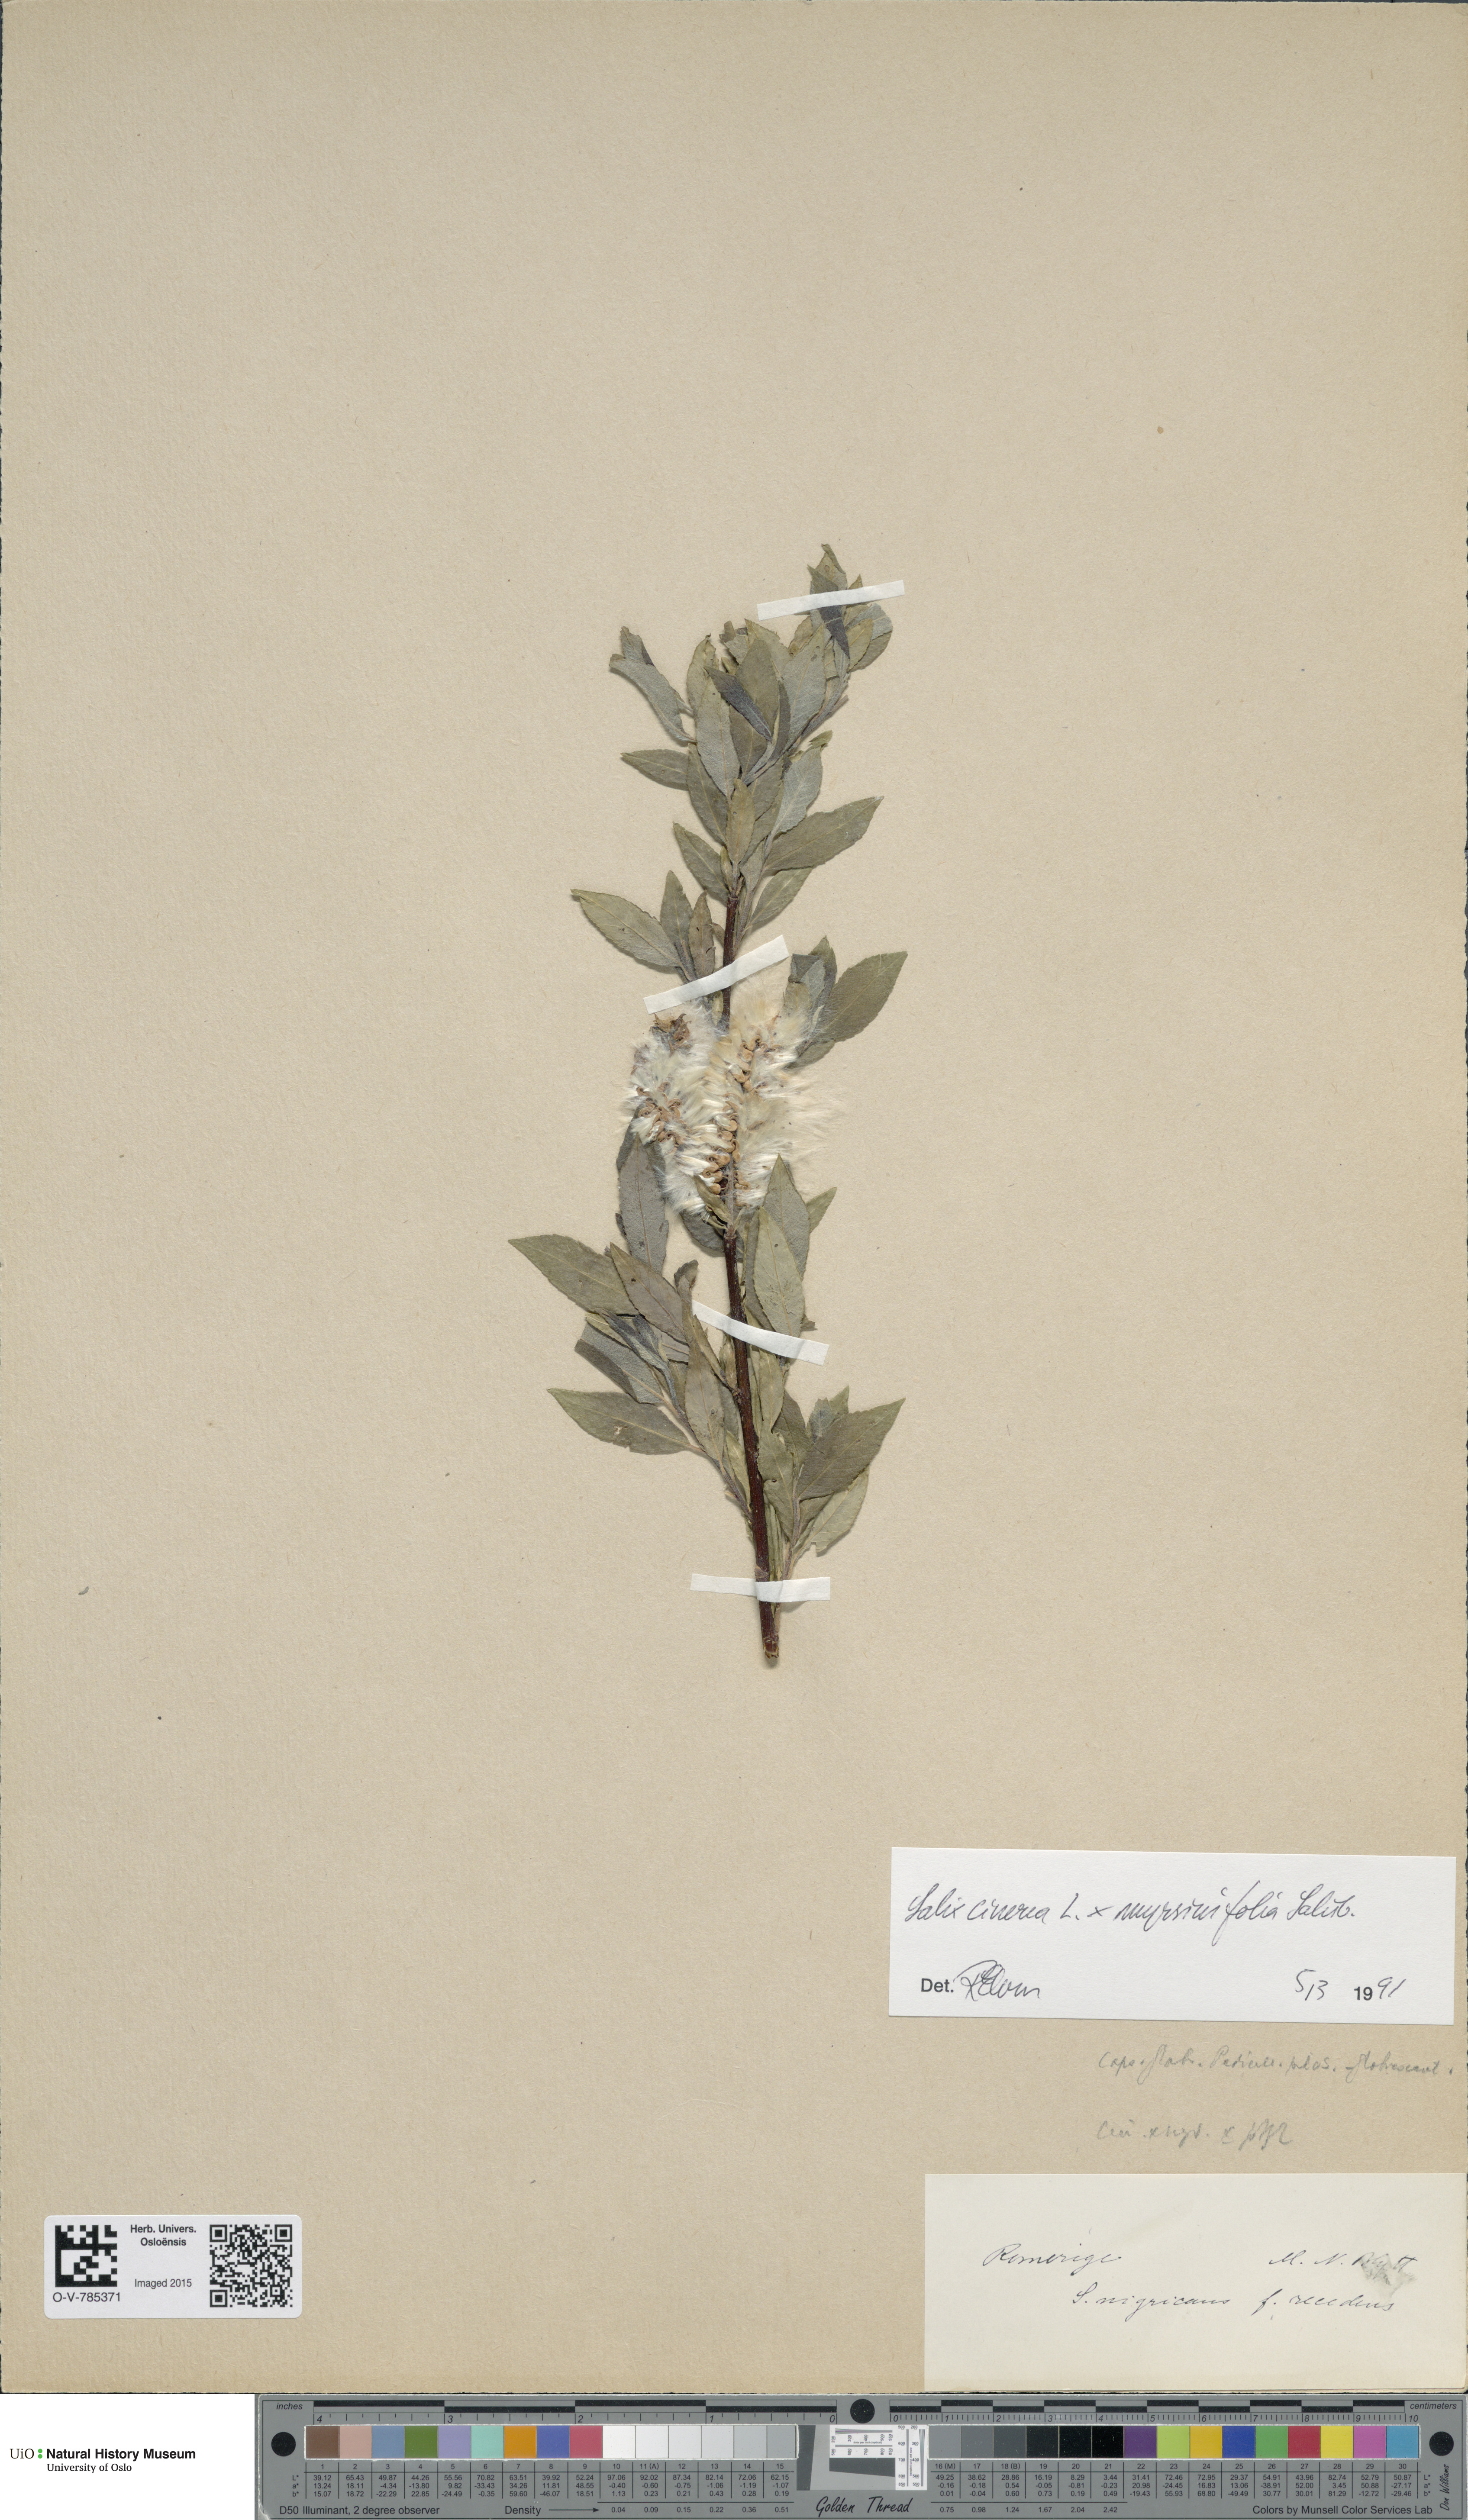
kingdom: Plantae
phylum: Tracheophyta
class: Magnoliopsida
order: Malpighiales
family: Salicaceae
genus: Salix
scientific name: Salix
